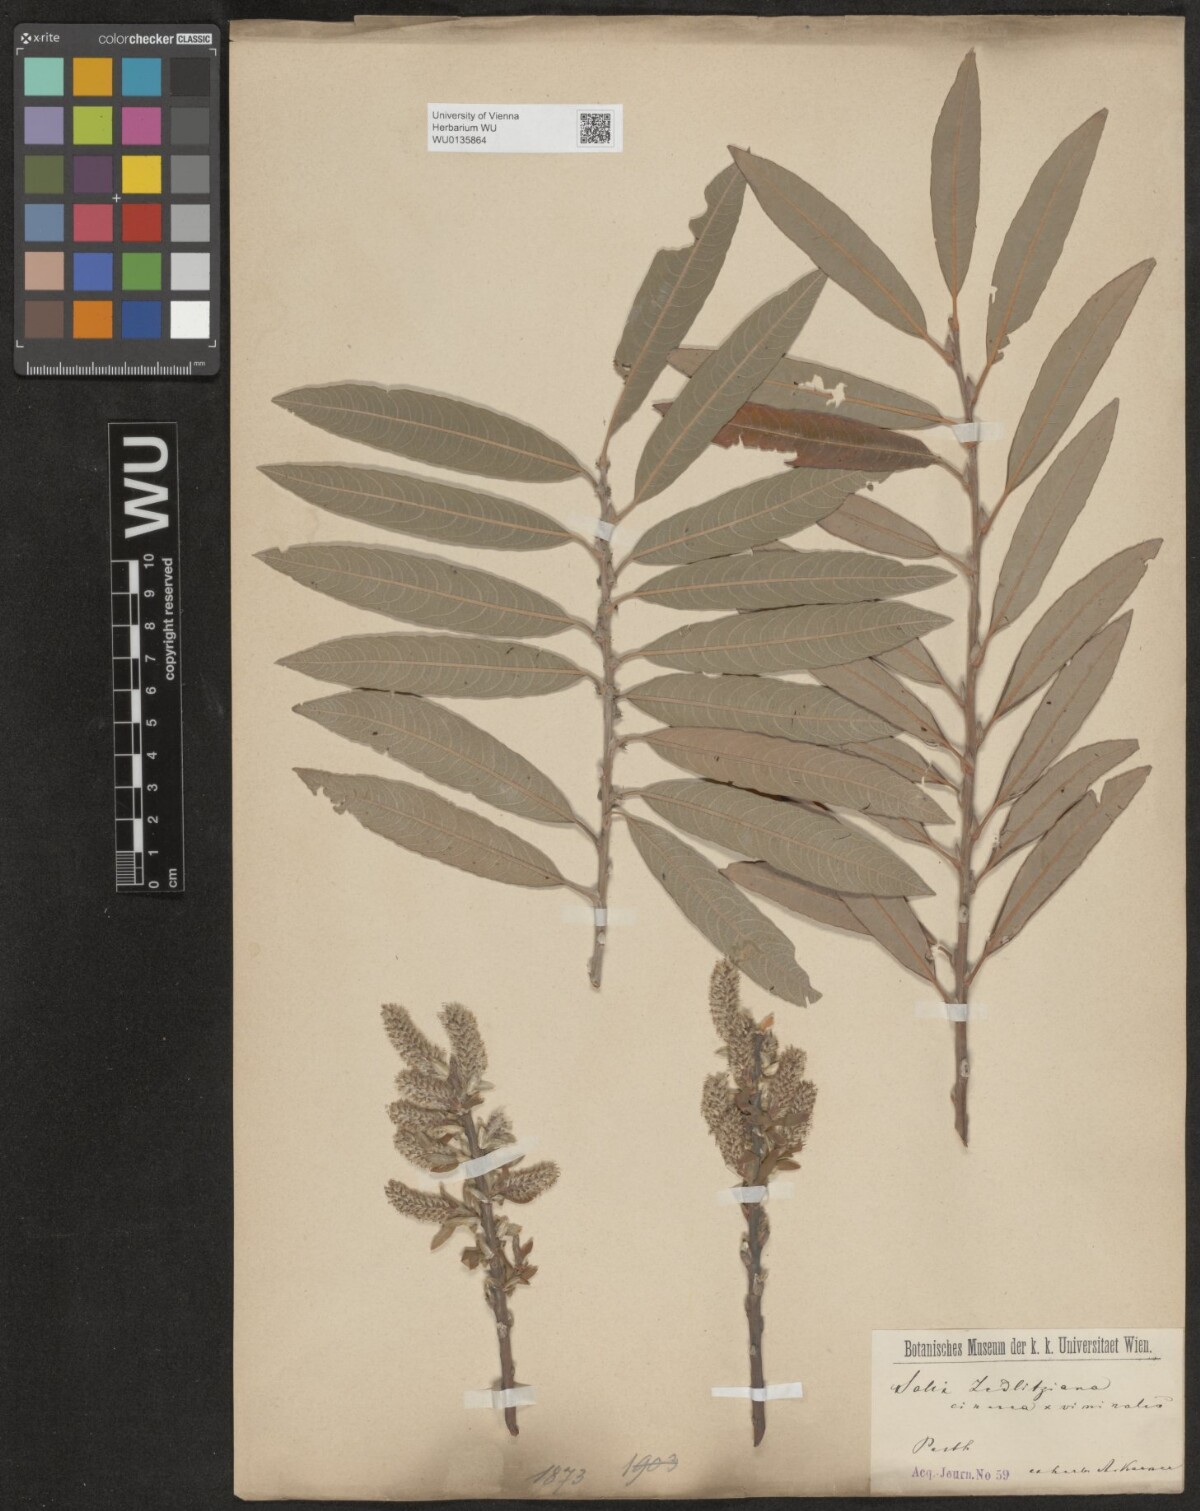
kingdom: Plantae
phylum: Tracheophyta
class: Magnoliopsida
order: Malpighiales
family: Salicaceae
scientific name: Salicaceae
